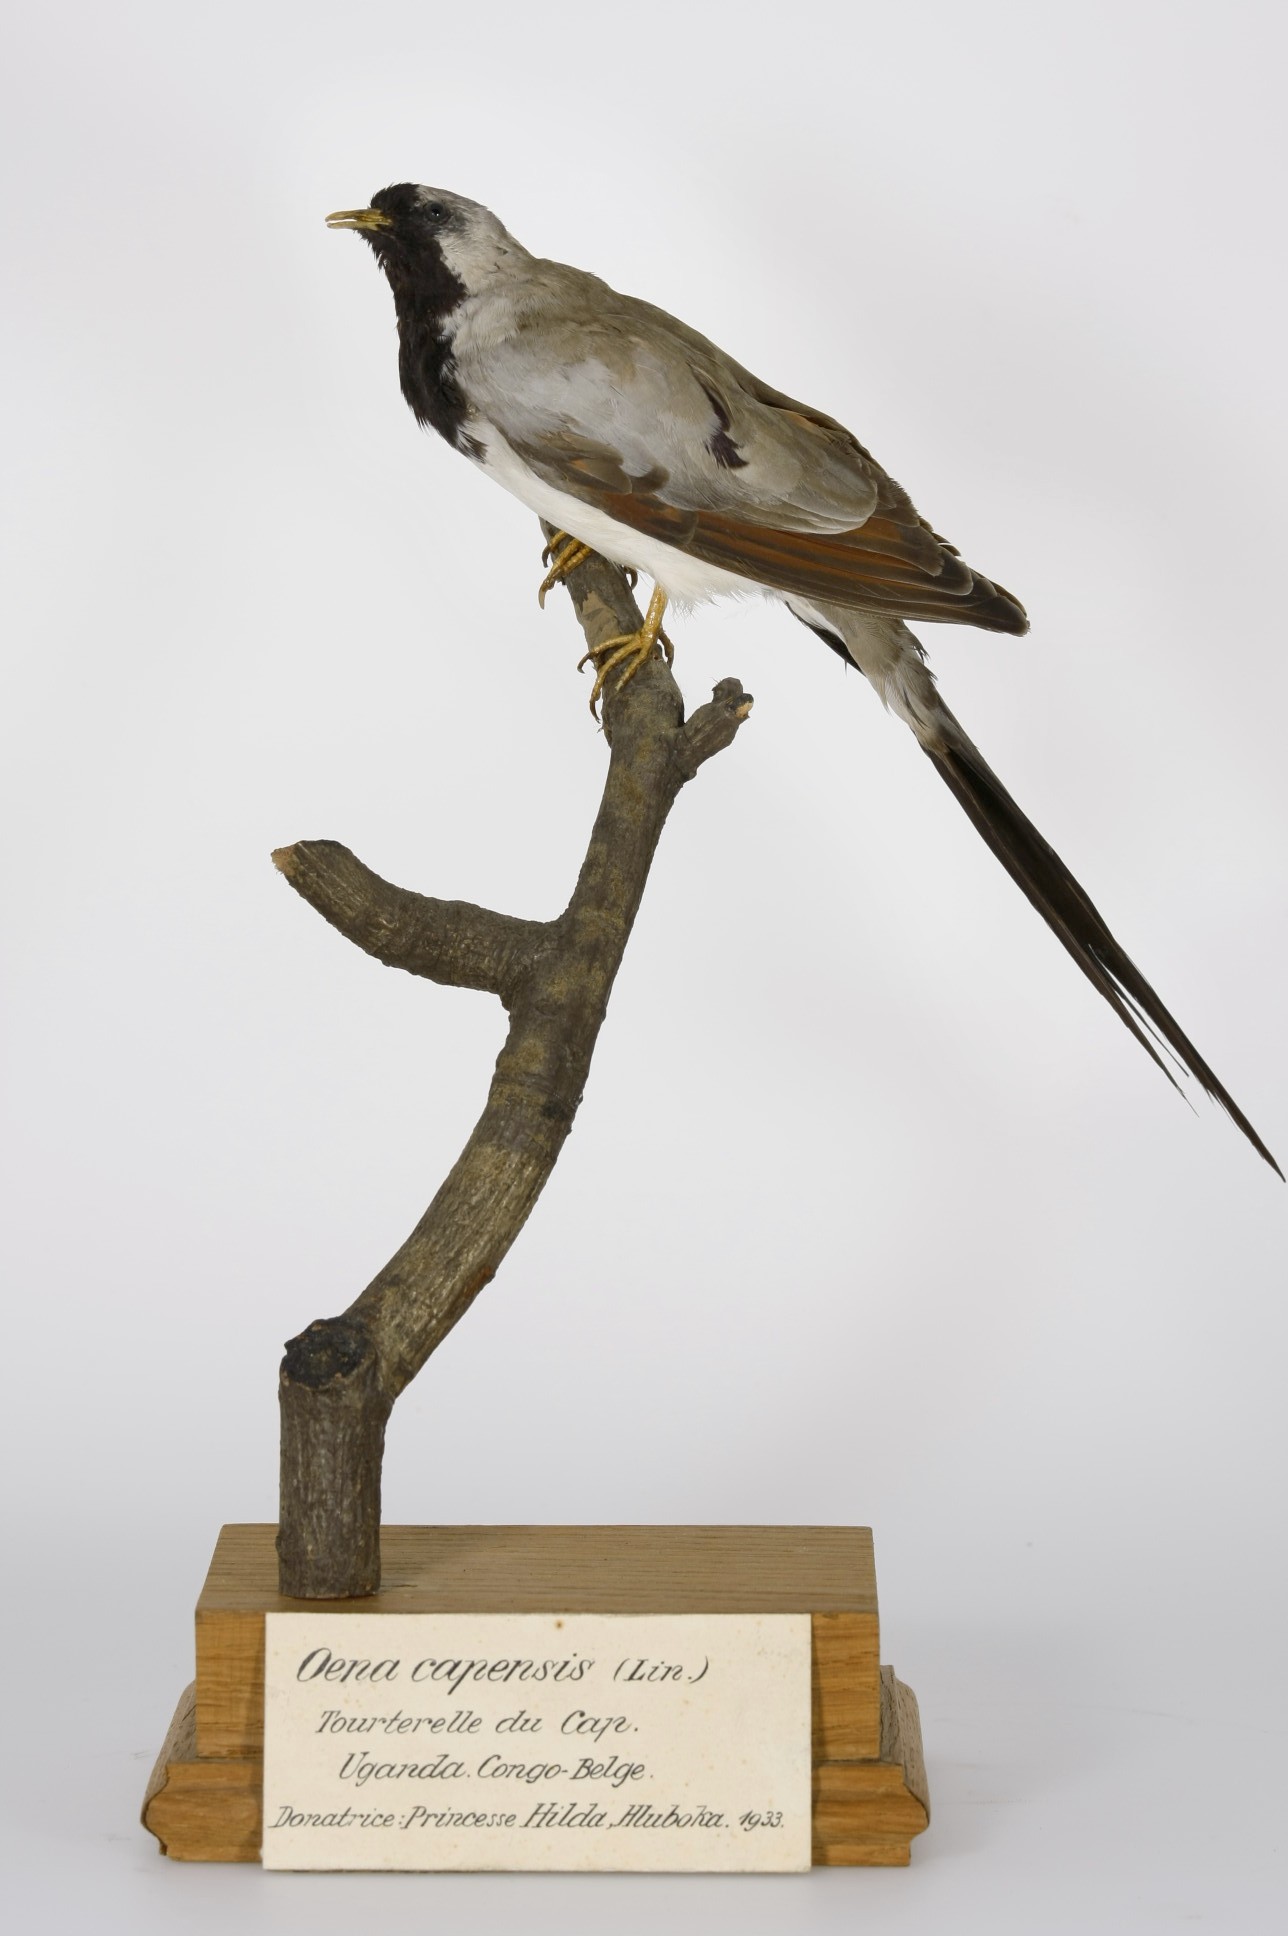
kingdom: Animalia
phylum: Chordata
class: Aves
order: Columbiformes
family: Columbidae
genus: Oena
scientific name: Oena capensis
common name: Namaqua dove
